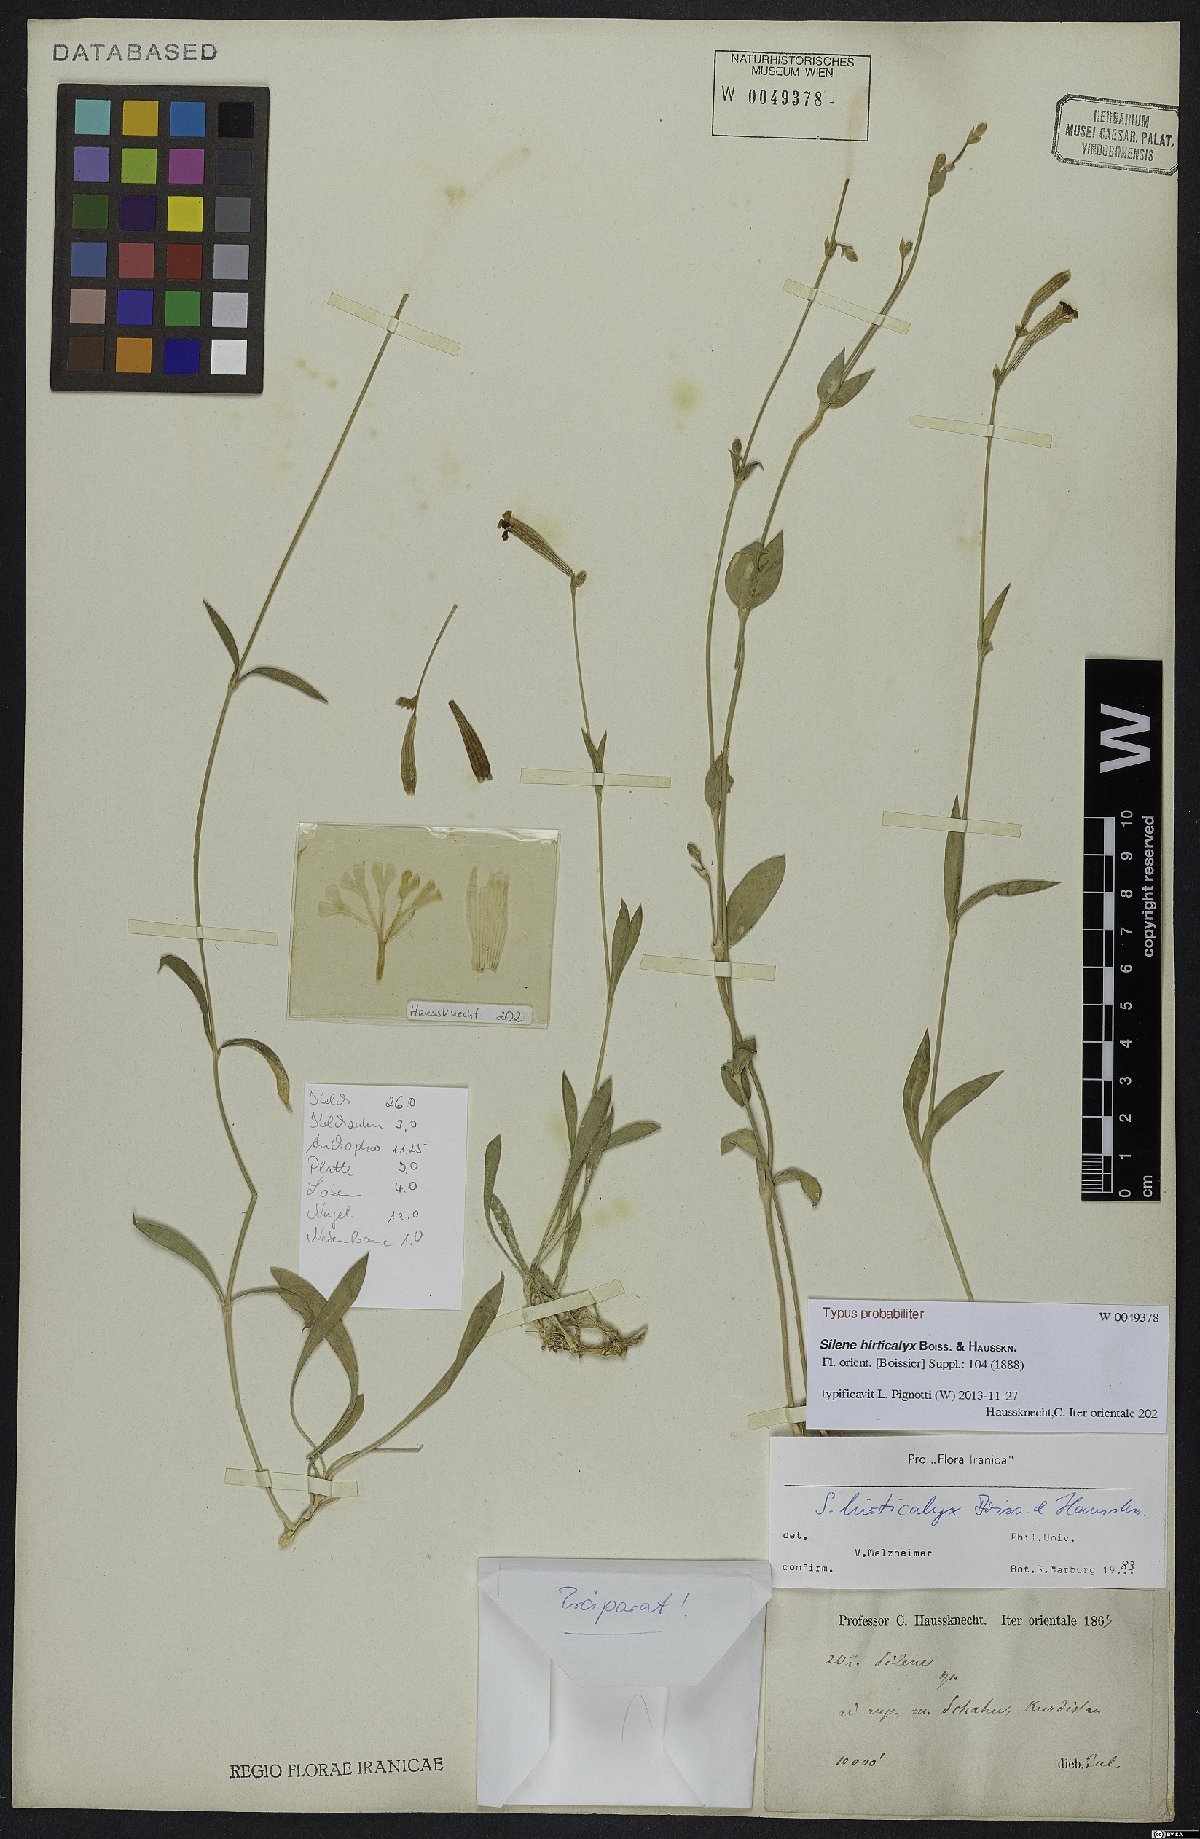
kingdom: Plantae
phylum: Tracheophyta
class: Magnoliopsida
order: Caryophyllales
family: Caryophyllaceae
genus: Silene
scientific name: Silene hirticalyx
